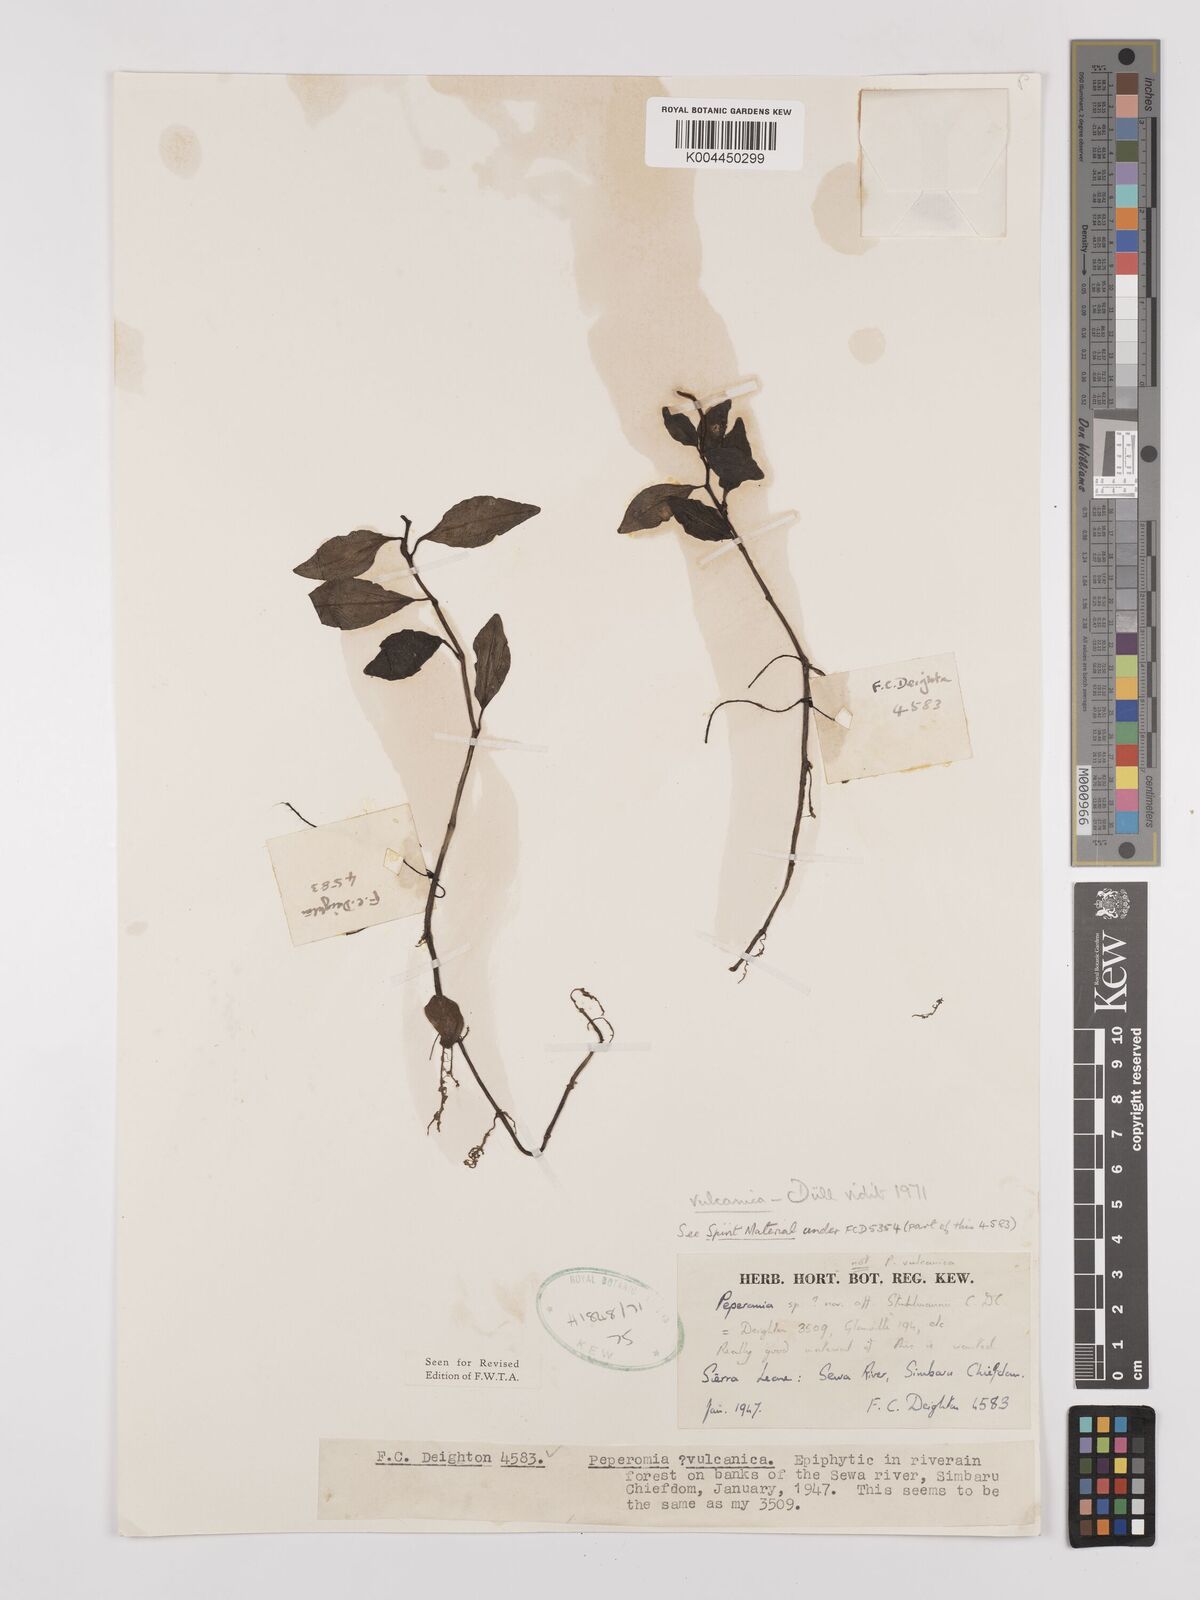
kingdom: Plantae
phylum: Tracheophyta
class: Magnoliopsida
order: Piperales
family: Piperaceae
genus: Peperomia
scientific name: Peperomia vulcanica
